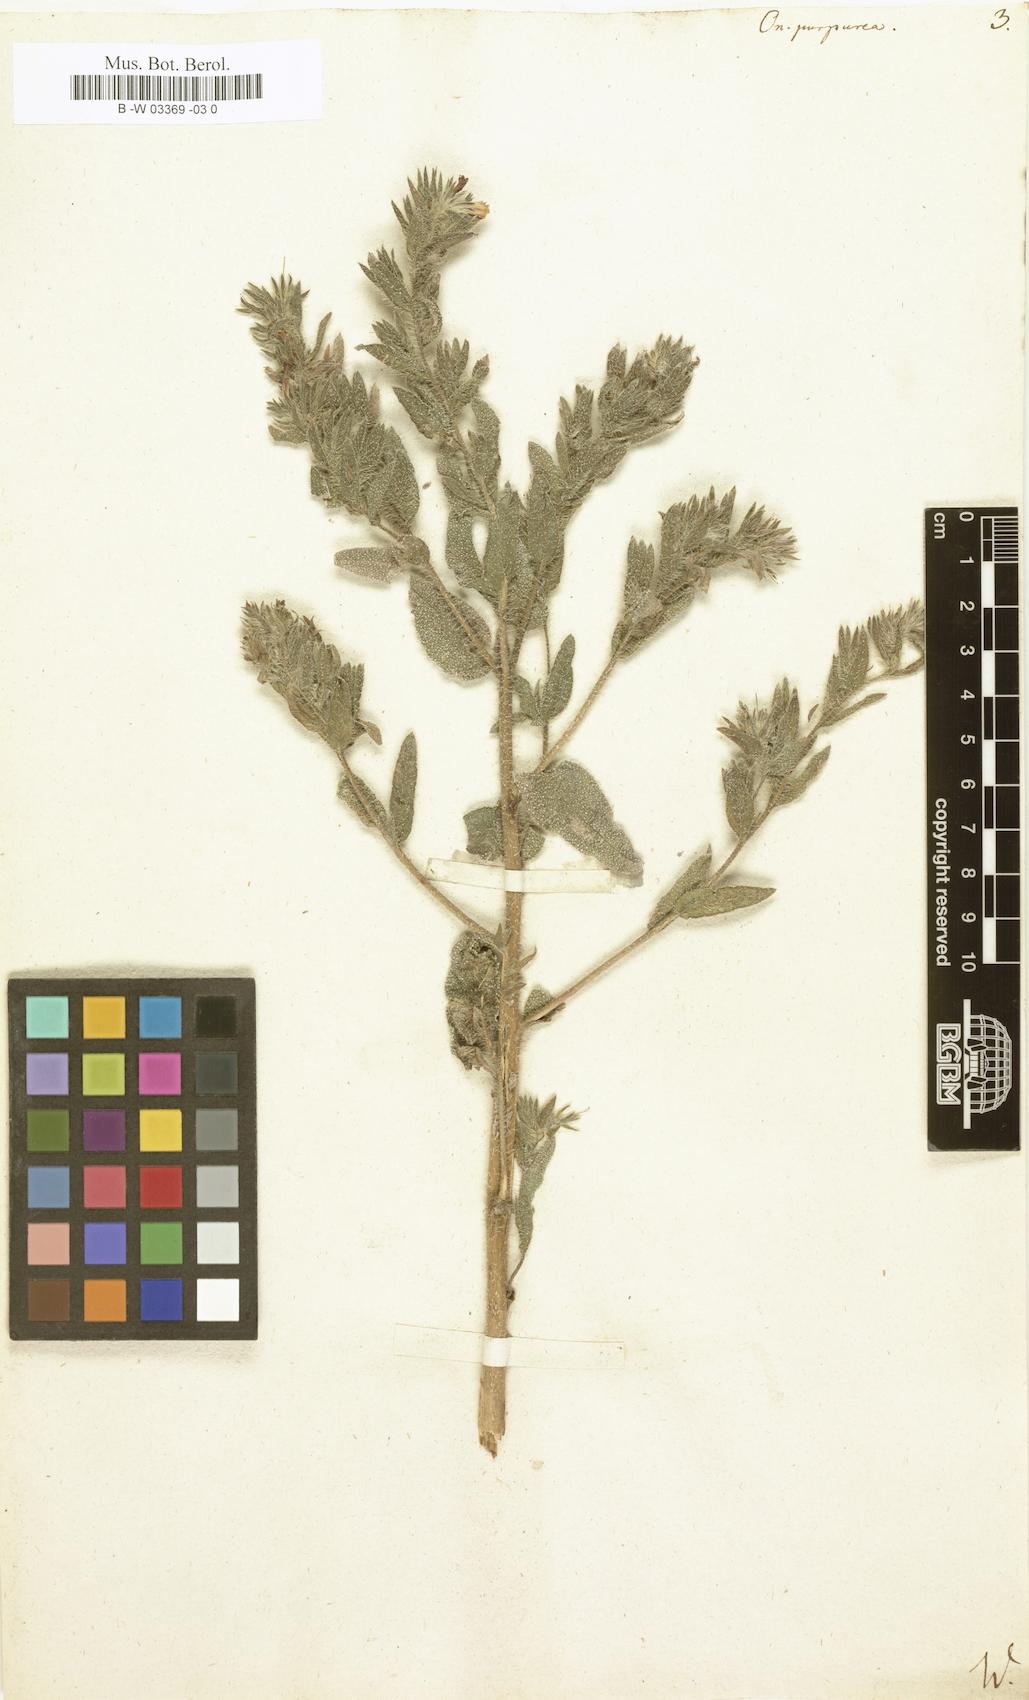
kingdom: Plantae
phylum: Tracheophyta
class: Magnoliopsida
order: Boraginales
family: Boraginaceae
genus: Onosma
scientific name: Onosma
